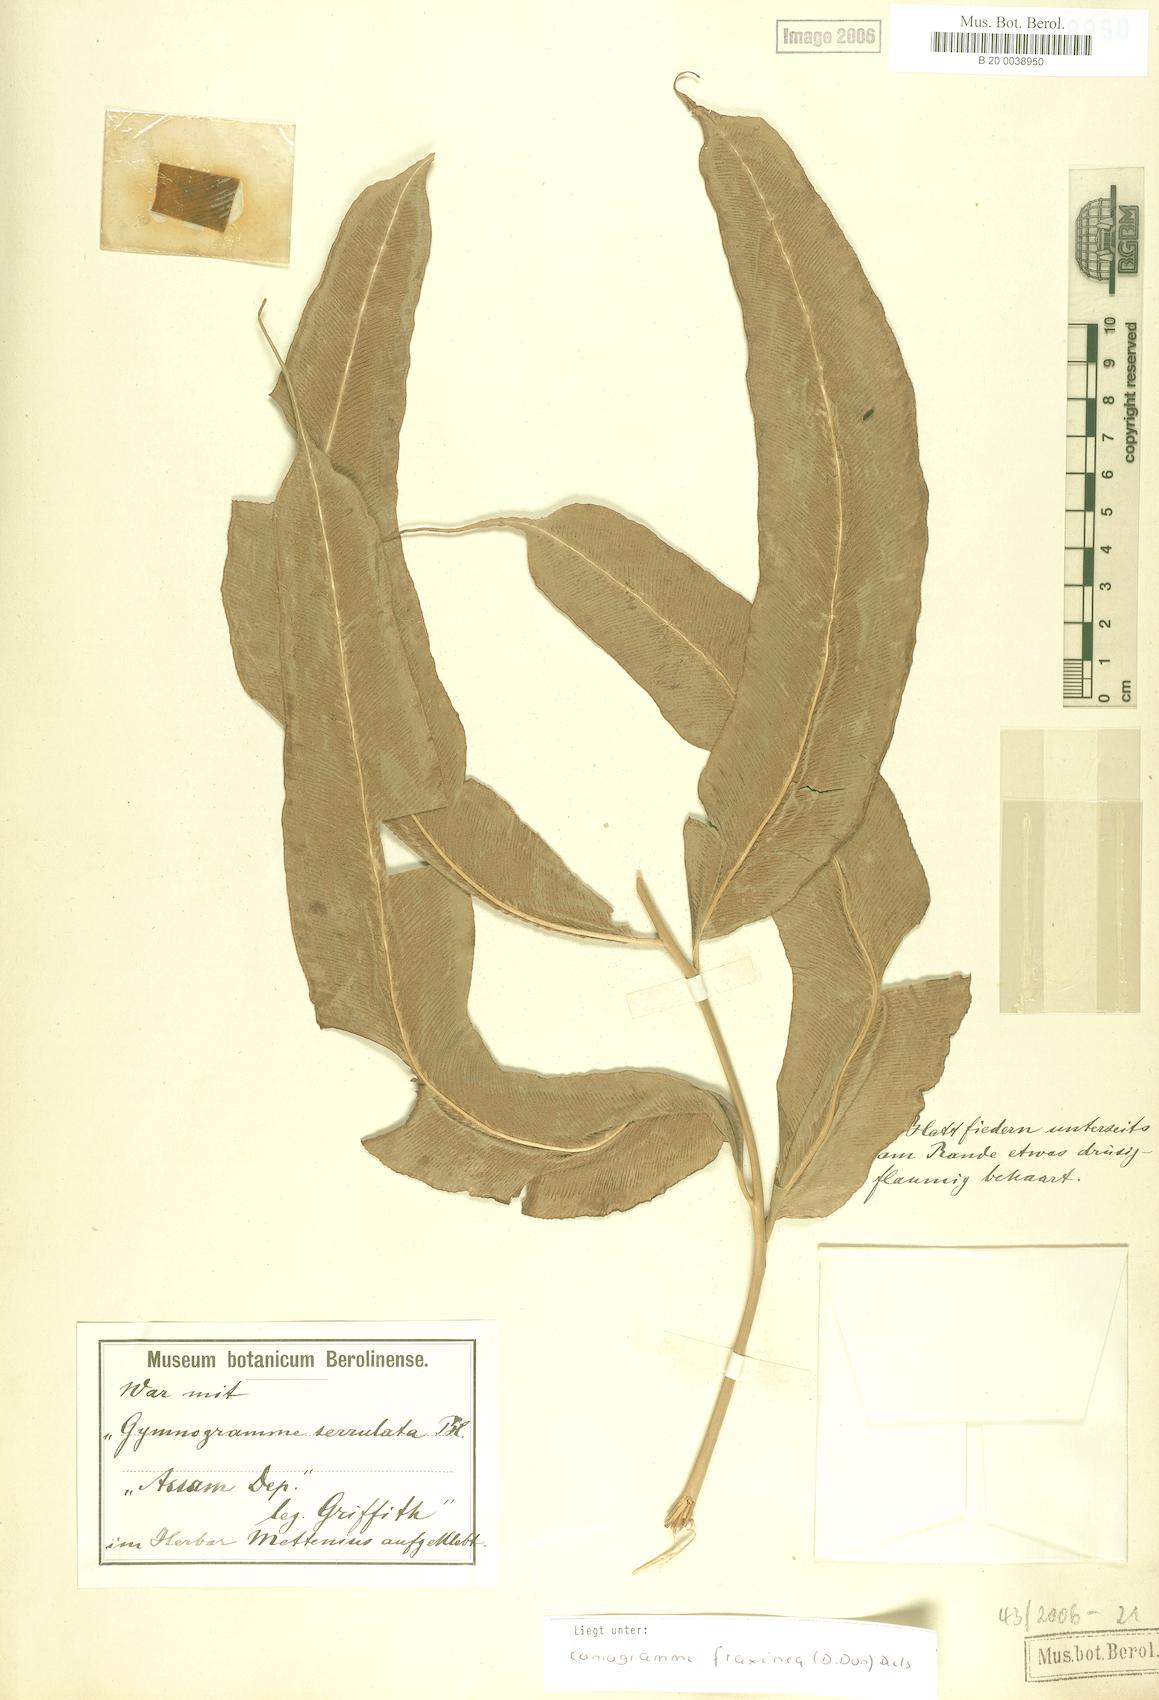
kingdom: Plantae
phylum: Tracheophyta
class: Polypodiopsida
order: Polypodiales
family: Pteridaceae
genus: Coniogramme
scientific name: Coniogramme fraxinea
